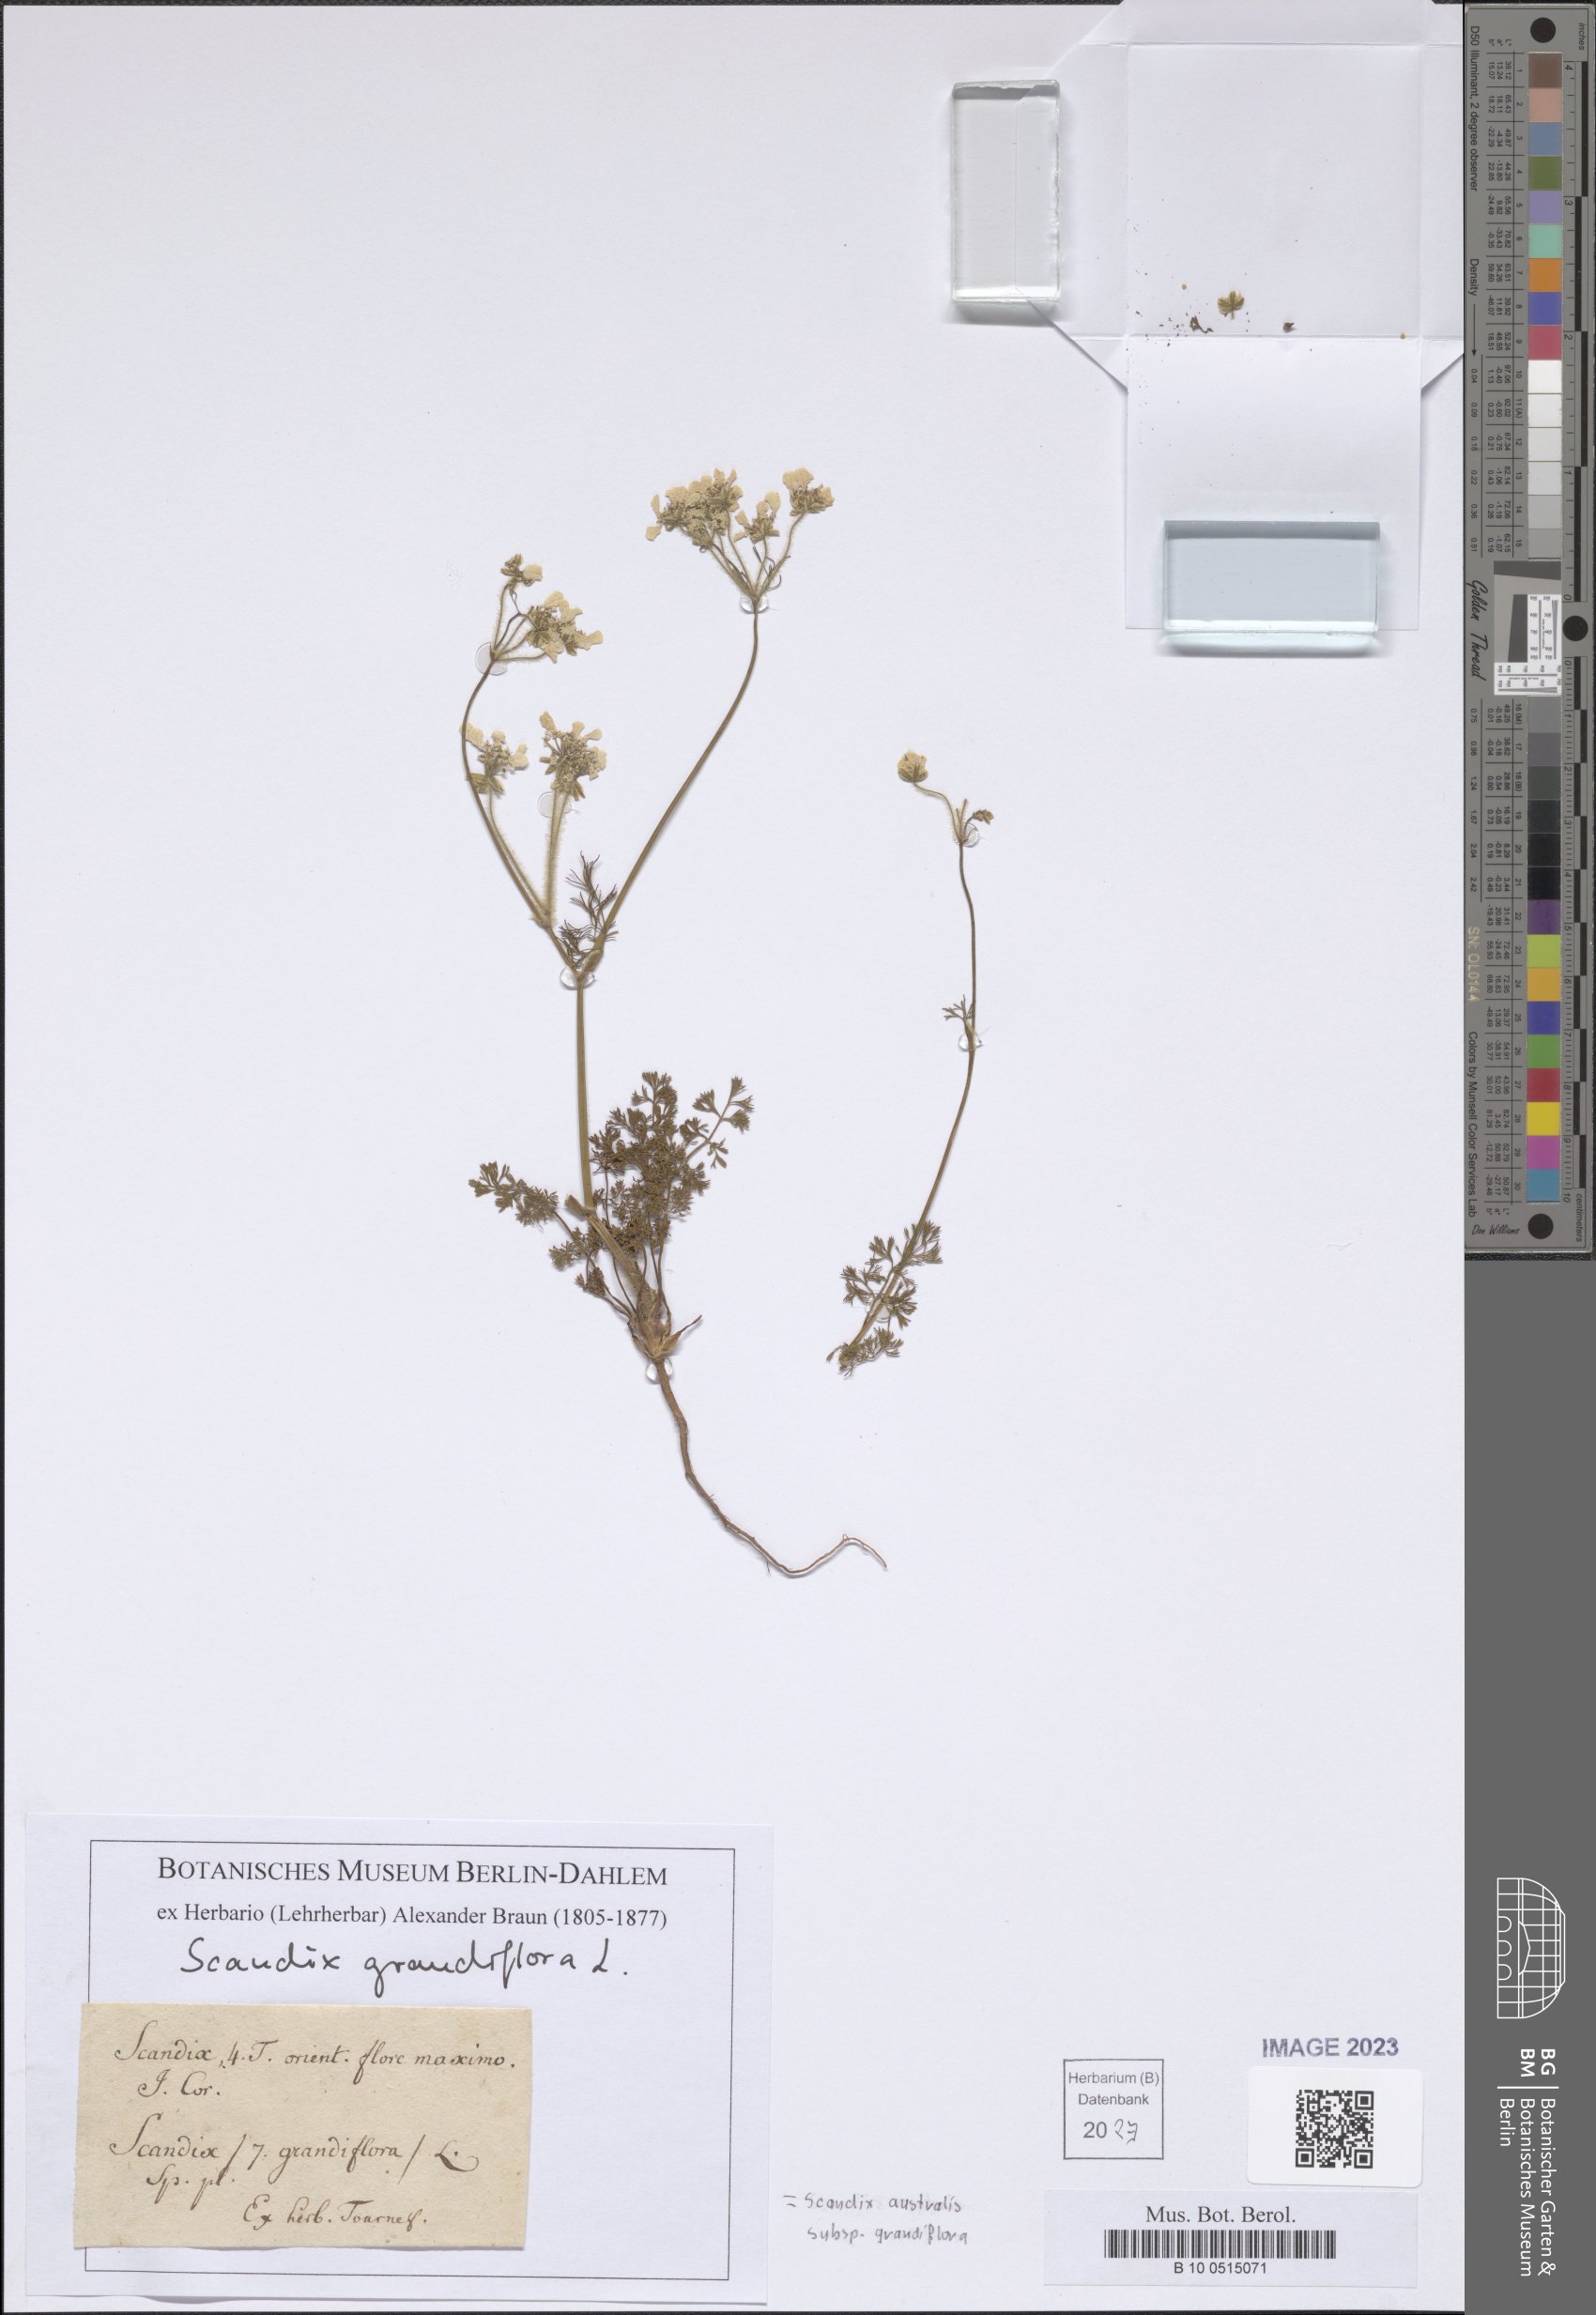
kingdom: Plantae
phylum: Tracheophyta
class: Magnoliopsida
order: Apiales
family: Apiaceae
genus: Scandix
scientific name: Scandix australis
